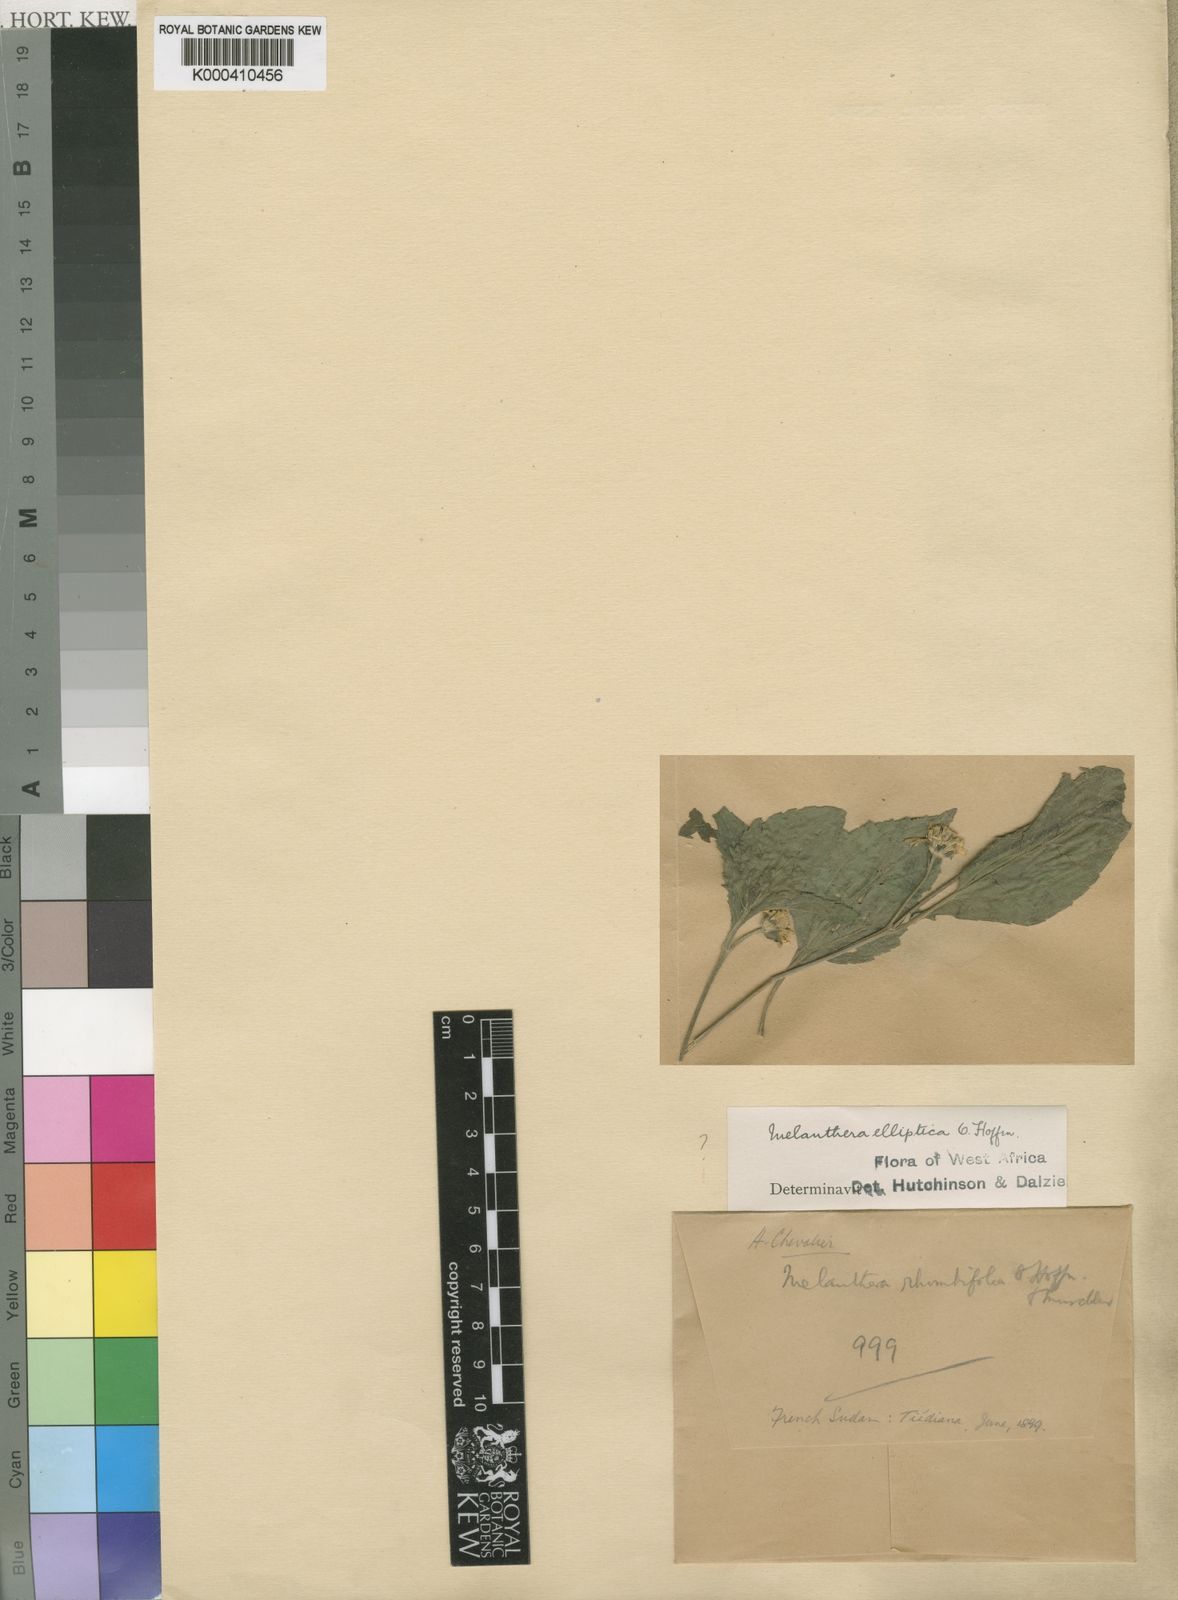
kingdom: Plantae
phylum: Tracheophyta
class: Magnoliopsida
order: Asterales
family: Asteraceae
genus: Lipotriche
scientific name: Lipotriche rhombifolia
